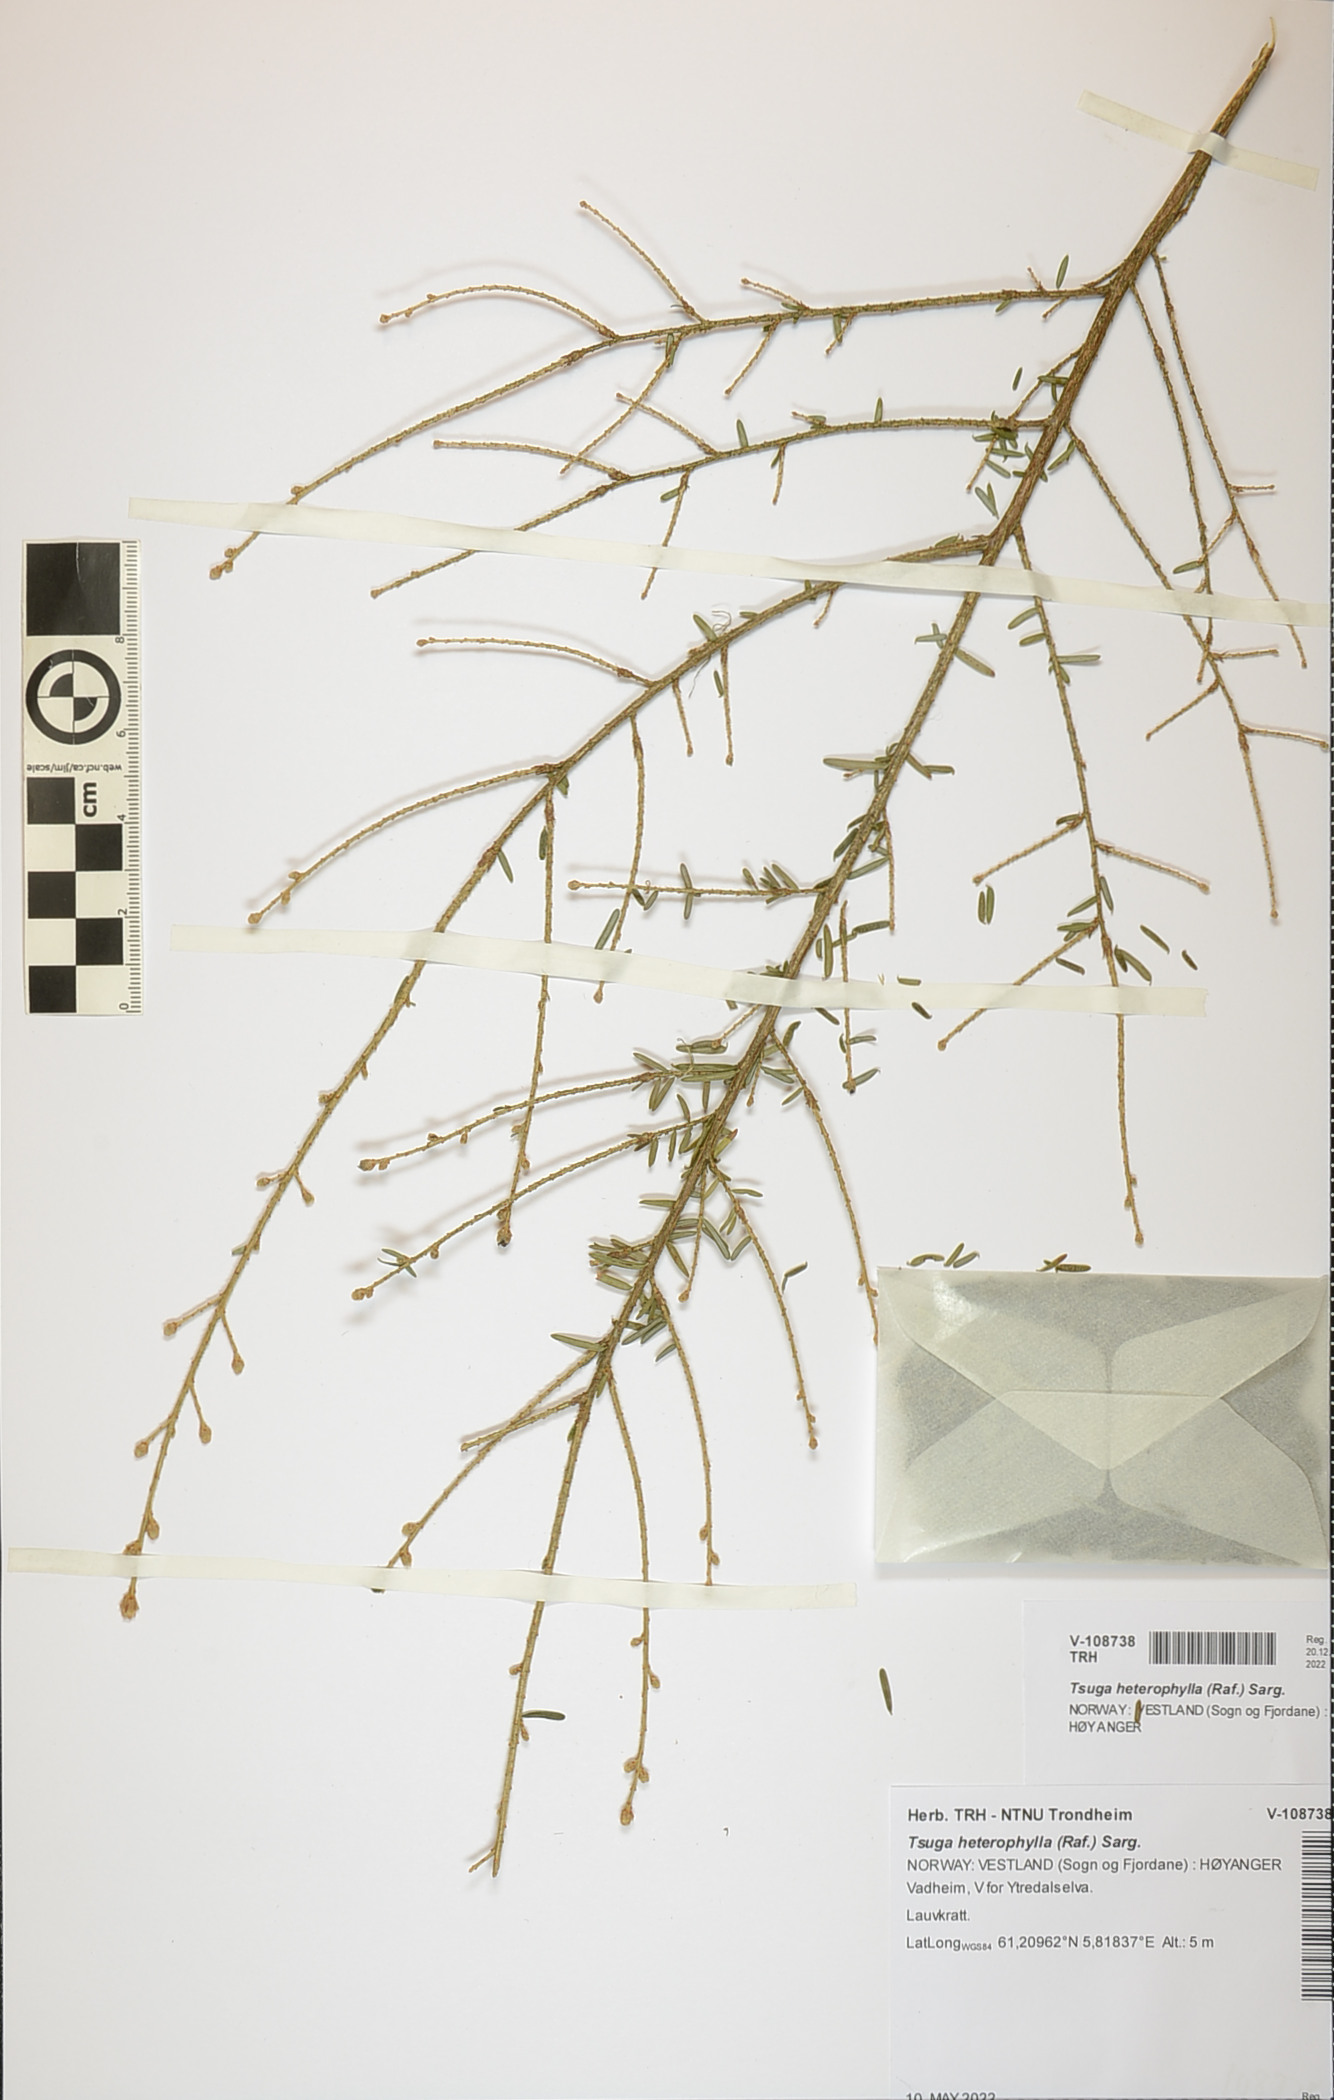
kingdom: Plantae
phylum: Tracheophyta
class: Pinopsida
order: Pinales
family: Pinaceae
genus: Tsuga
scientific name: Tsuga heterophylla
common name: Western hemlock
